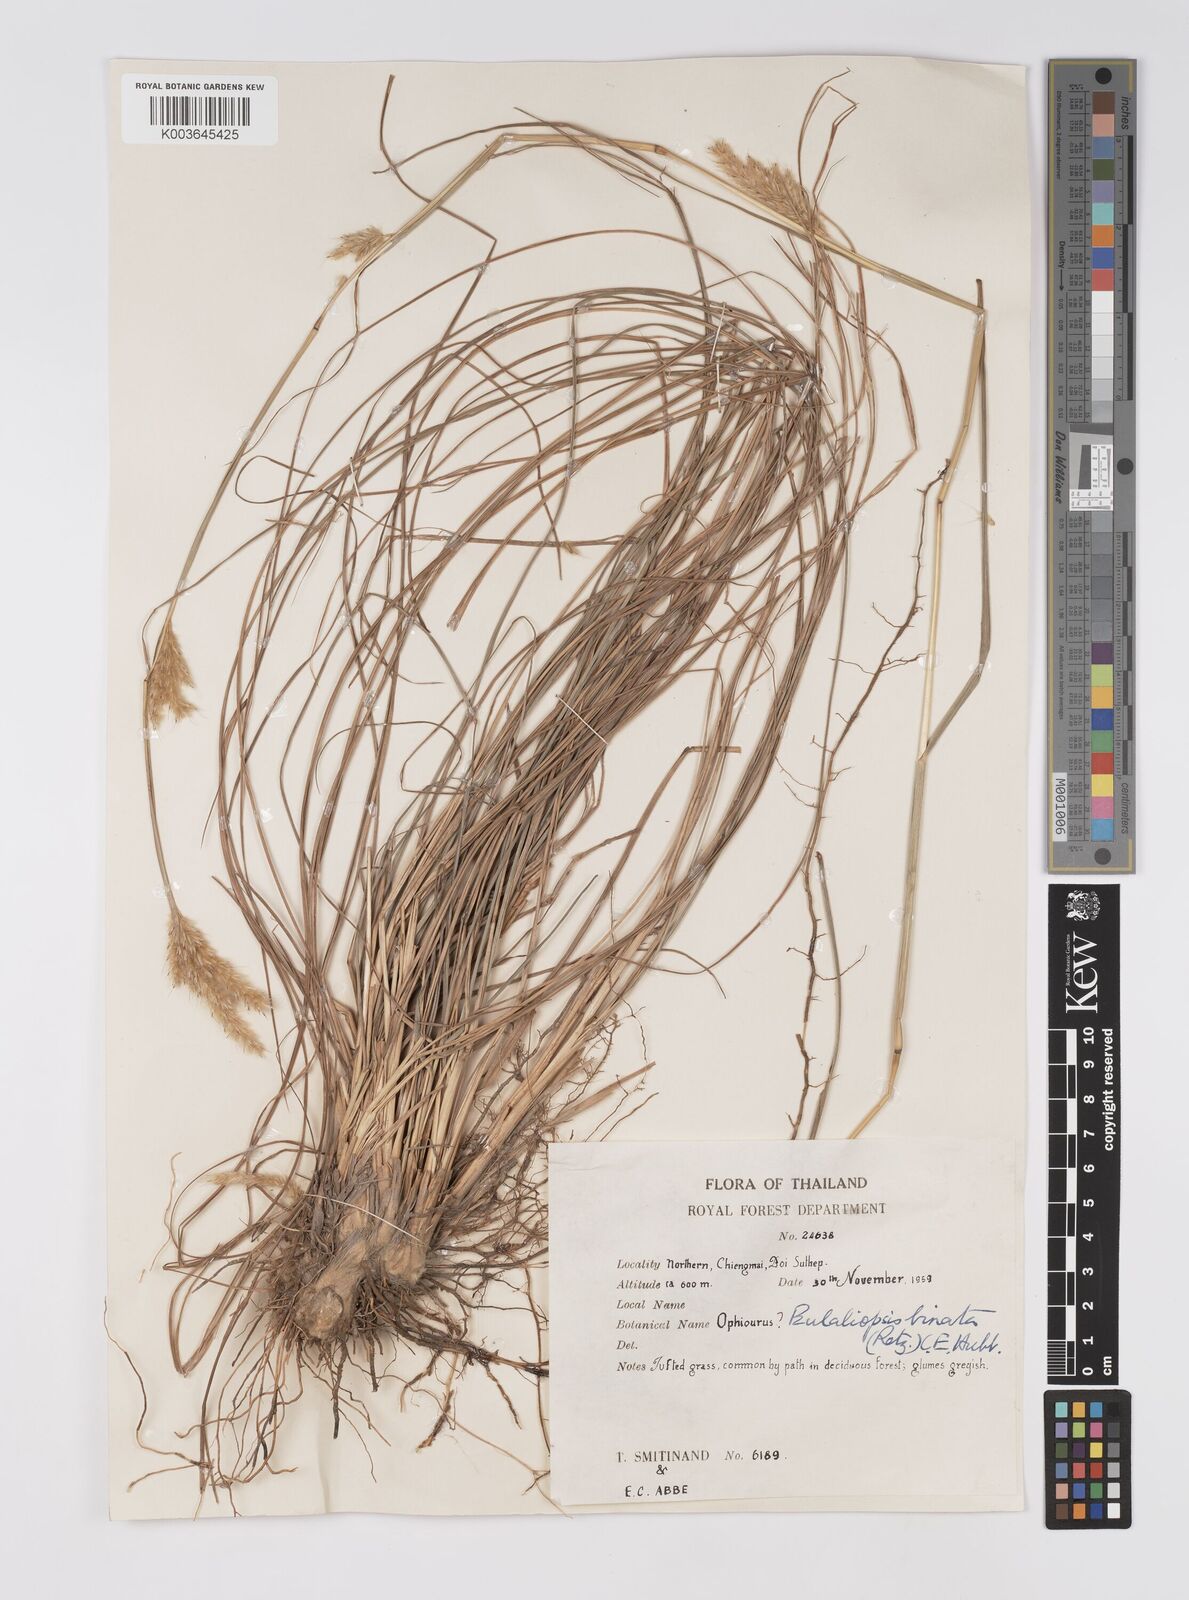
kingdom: Plantae
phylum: Tracheophyta
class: Liliopsida
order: Poales
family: Poaceae
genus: Eulaliopsis
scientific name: Eulaliopsis binata
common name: Baib grass
